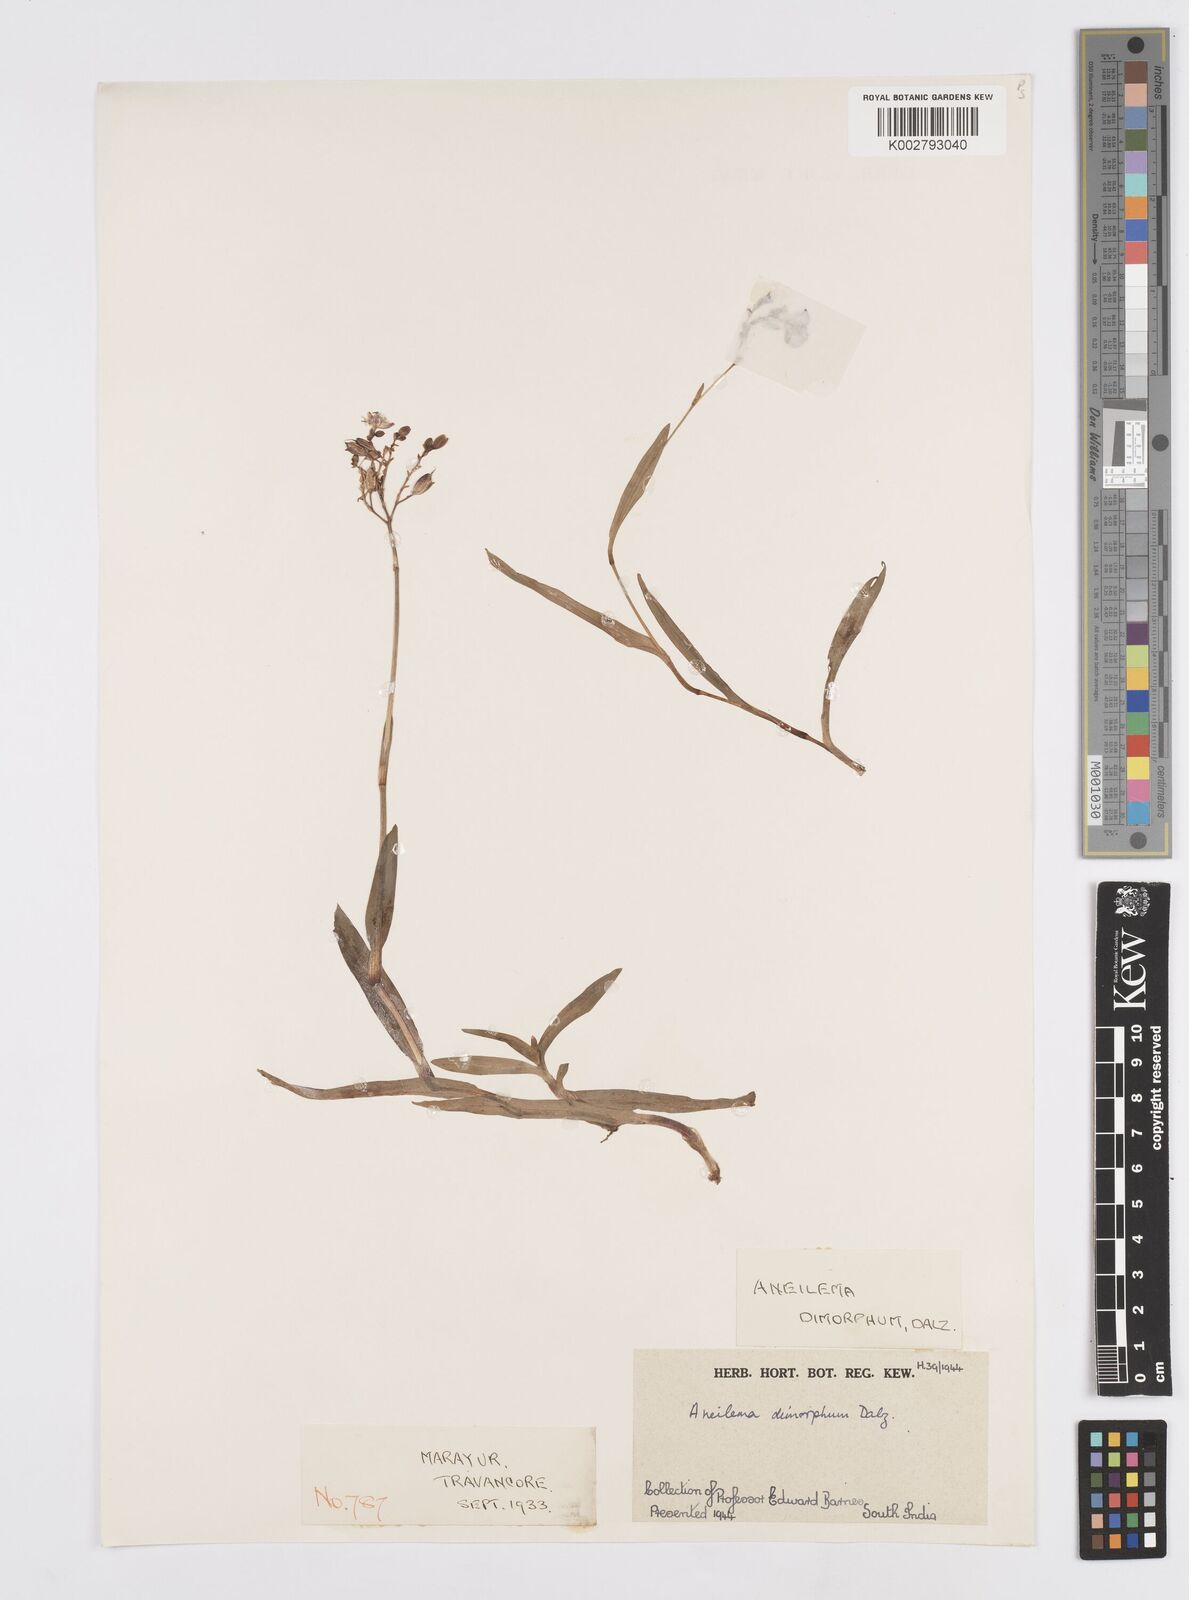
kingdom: Plantae
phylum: Tracheophyta
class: Liliopsida
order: Commelinales
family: Commelinaceae
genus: Murdannia
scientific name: Murdannia dimorpha
